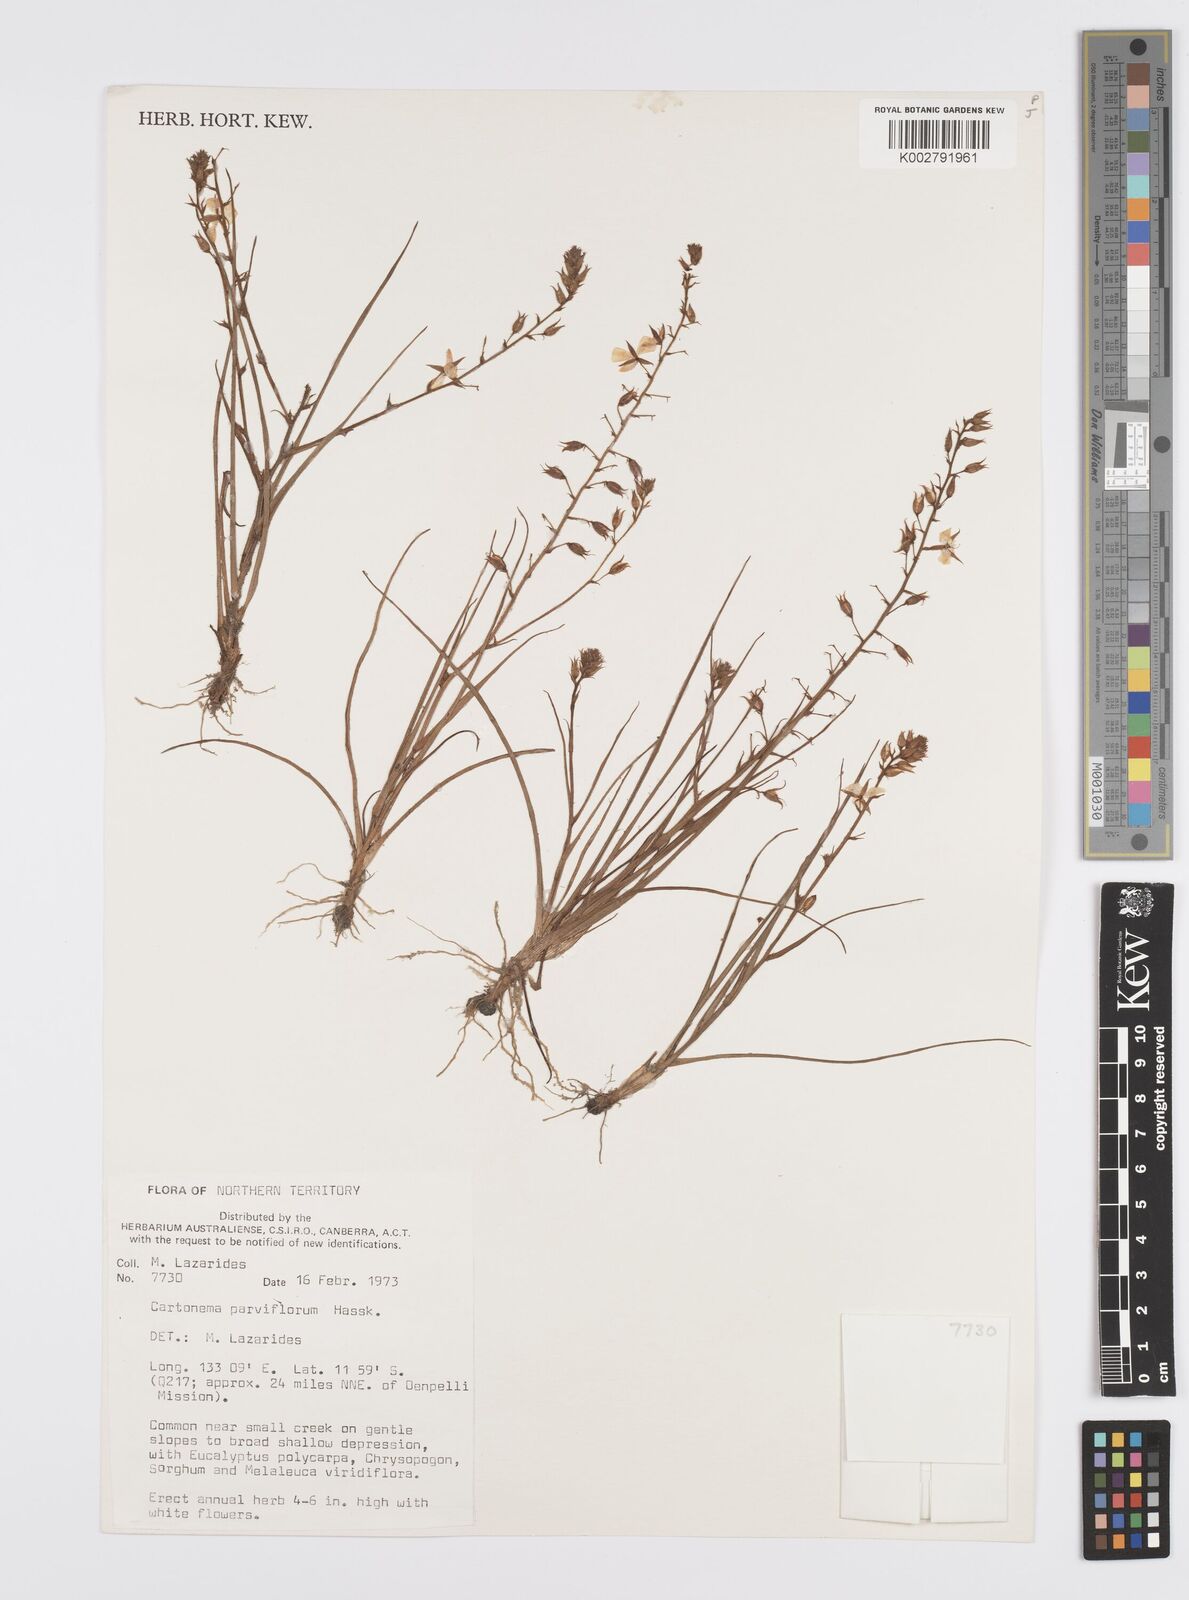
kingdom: Plantae
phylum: Tracheophyta
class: Liliopsida
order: Commelinales
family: Commelinaceae
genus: Cartonema
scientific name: Cartonema parviflorum
